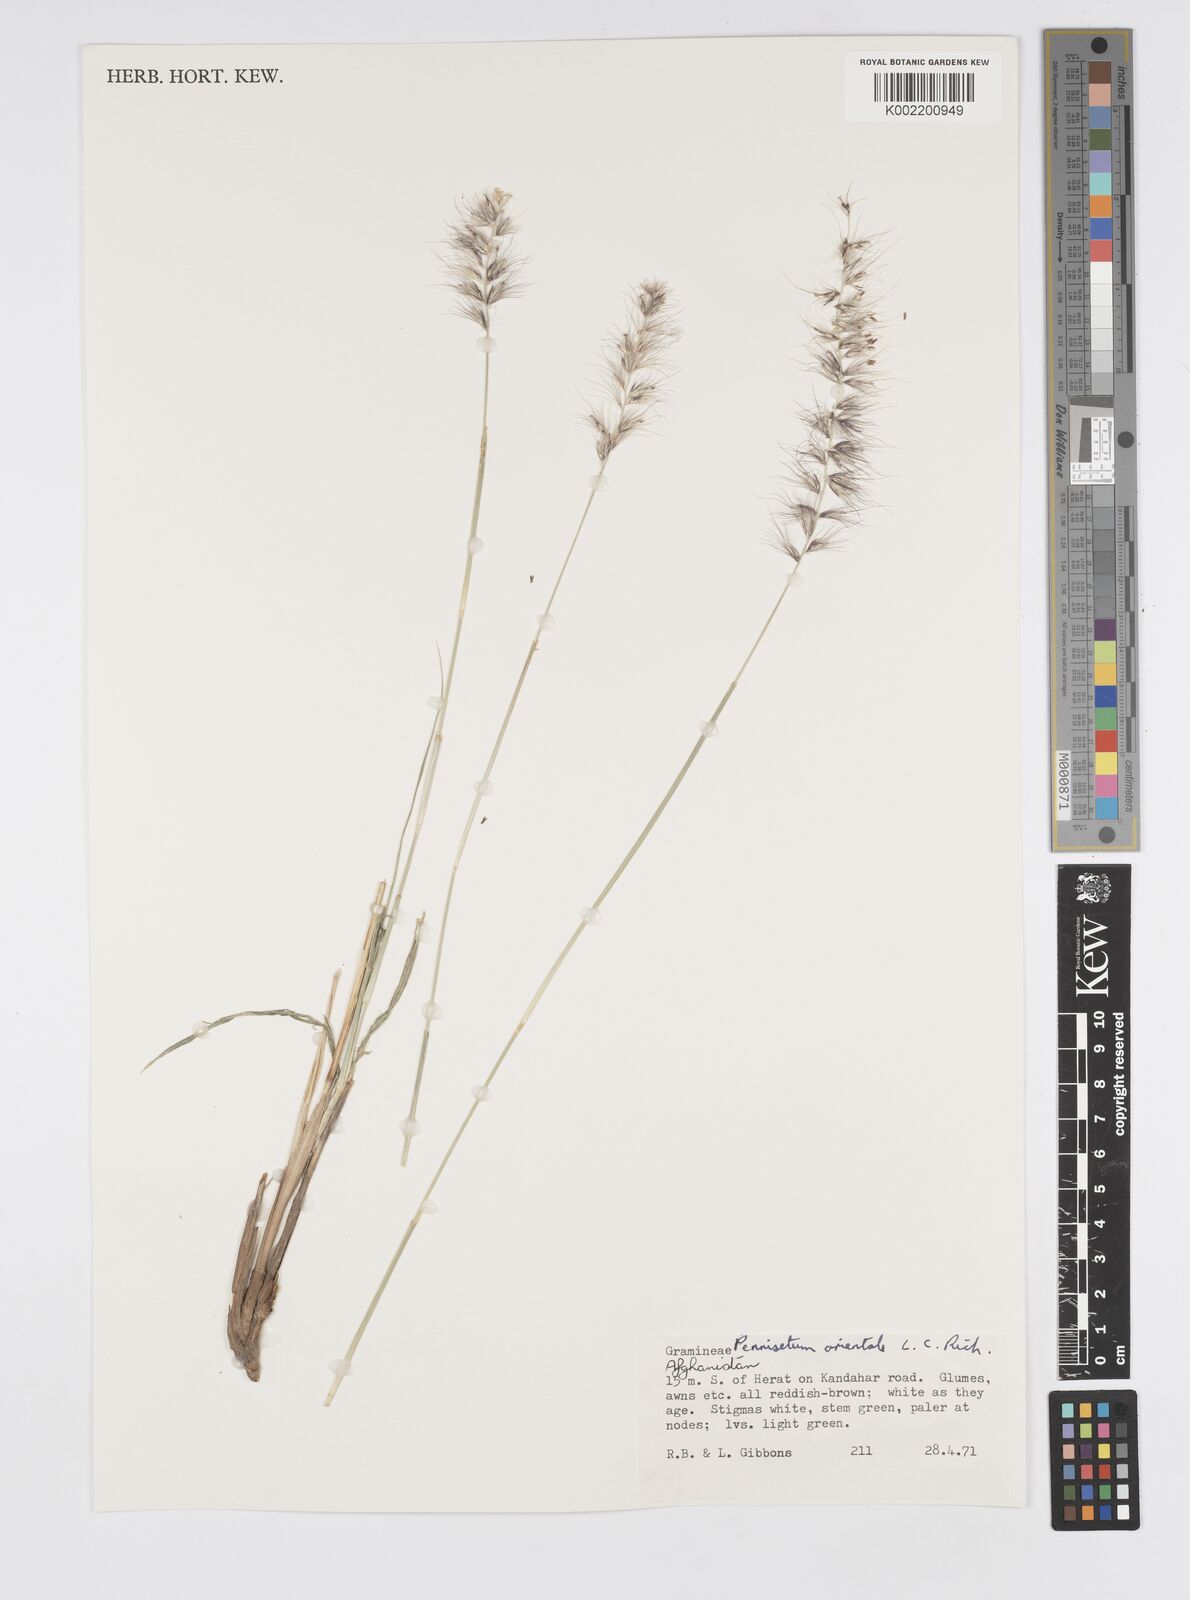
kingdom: Plantae
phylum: Tracheophyta
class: Liliopsida
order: Poales
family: Poaceae
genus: Cenchrus
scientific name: Cenchrus orientalis
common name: Oriental fountain grass
